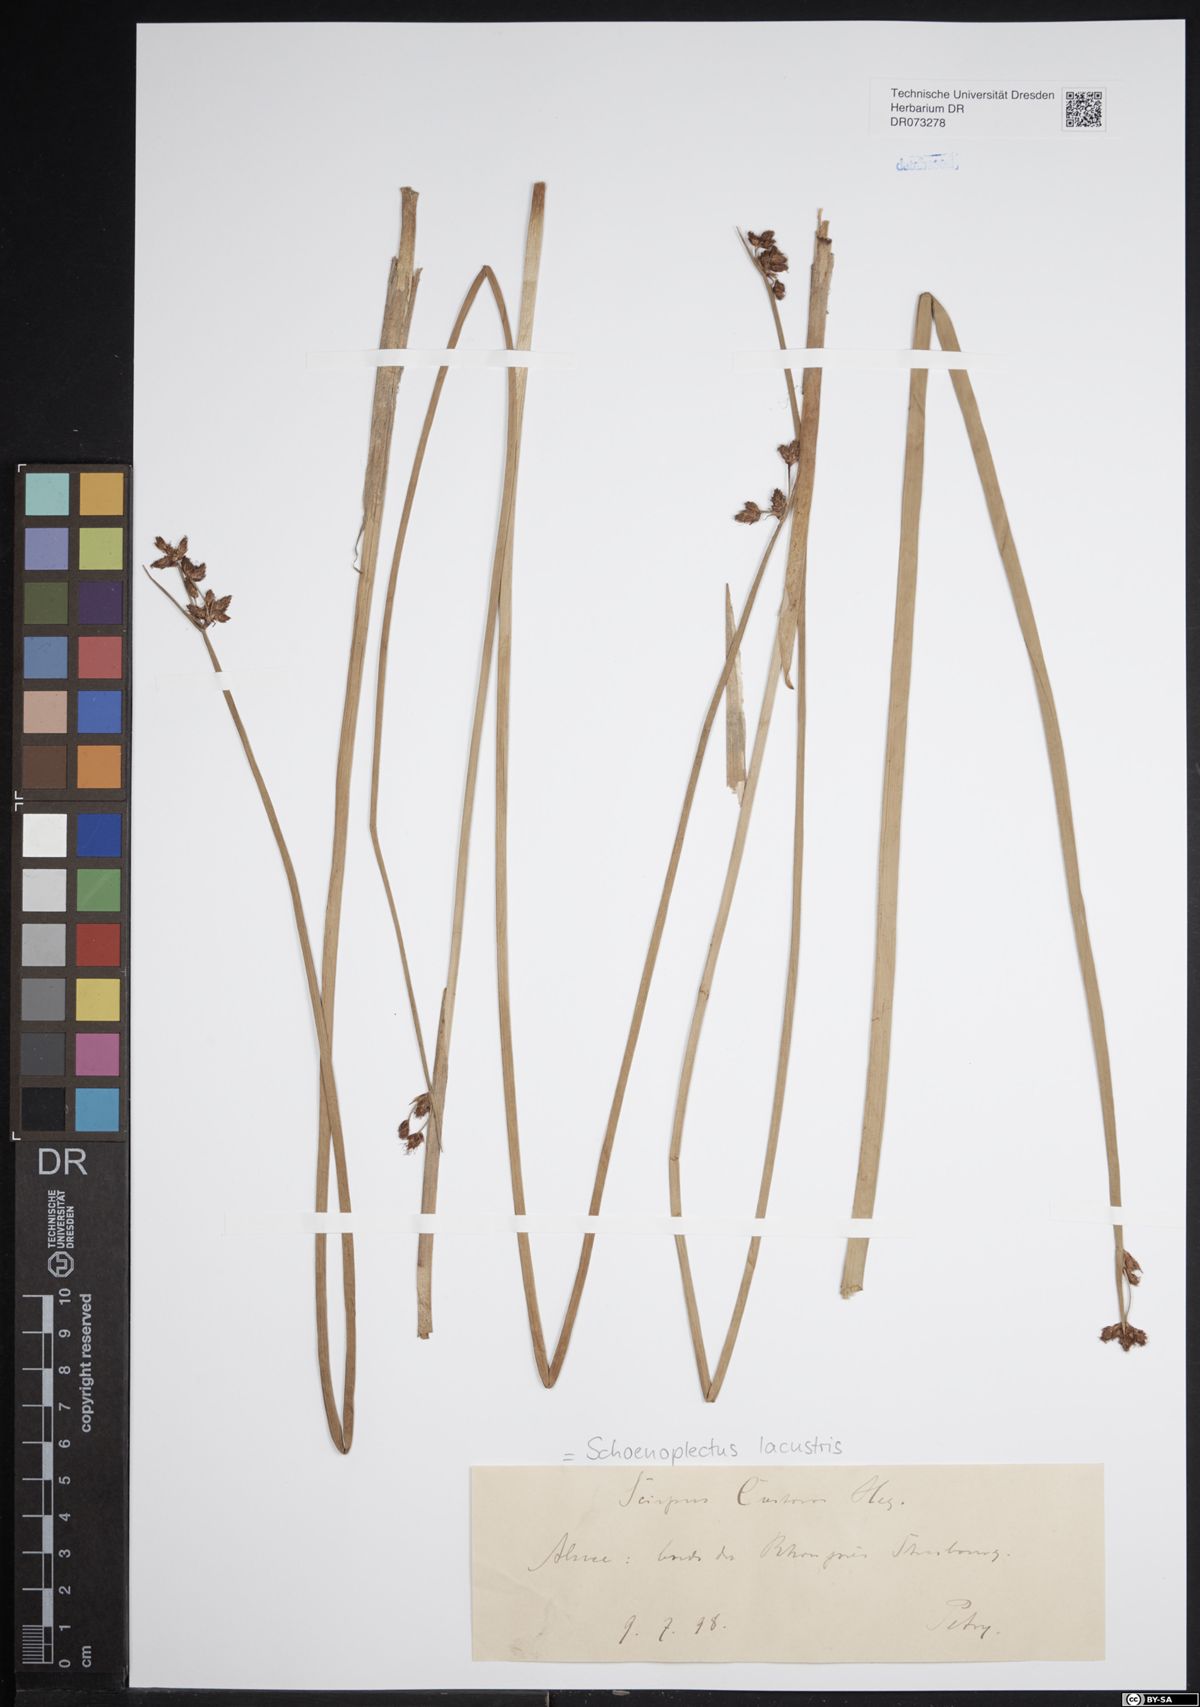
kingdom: Plantae
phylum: Tracheophyta
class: Liliopsida
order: Poales
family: Cyperaceae
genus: Schoenoplectus
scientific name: Schoenoplectus lacustris
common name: Common club-rush
